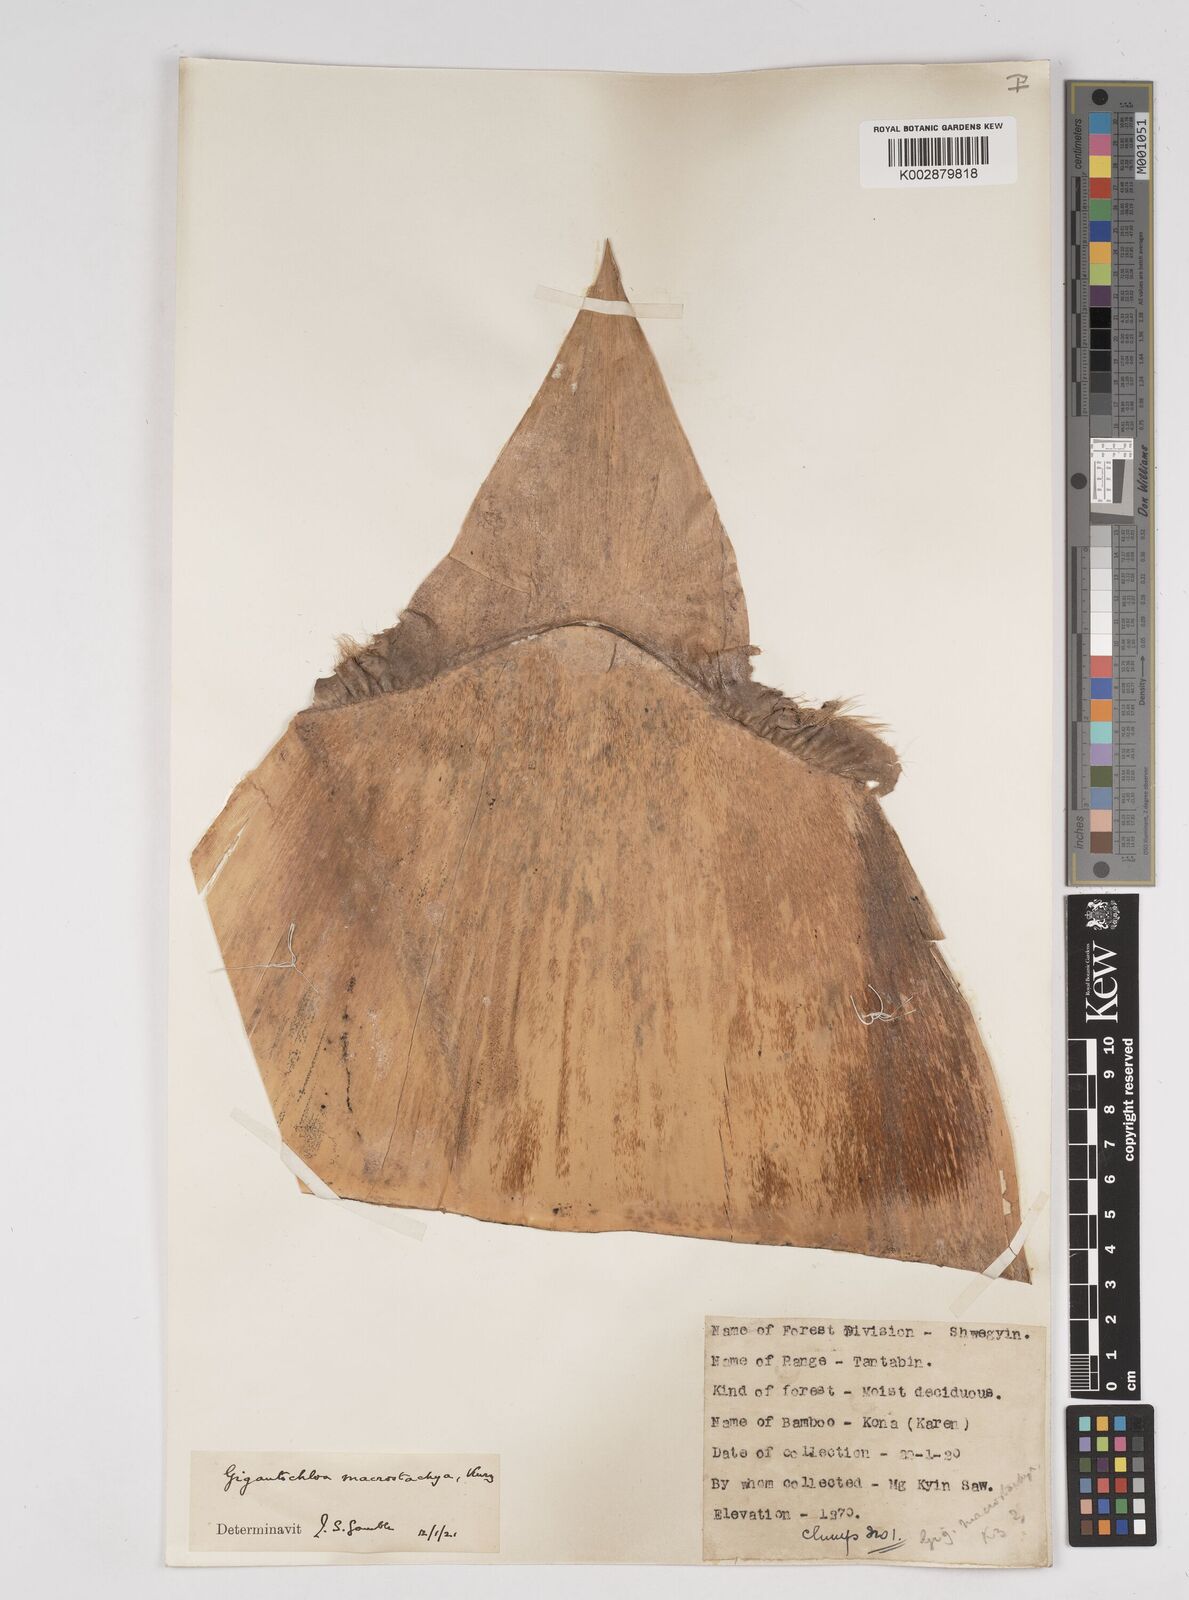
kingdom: Plantae
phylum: Tracheophyta
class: Liliopsida
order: Poales
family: Poaceae
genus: Gigantochloa
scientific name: Gigantochloa macrostachya
